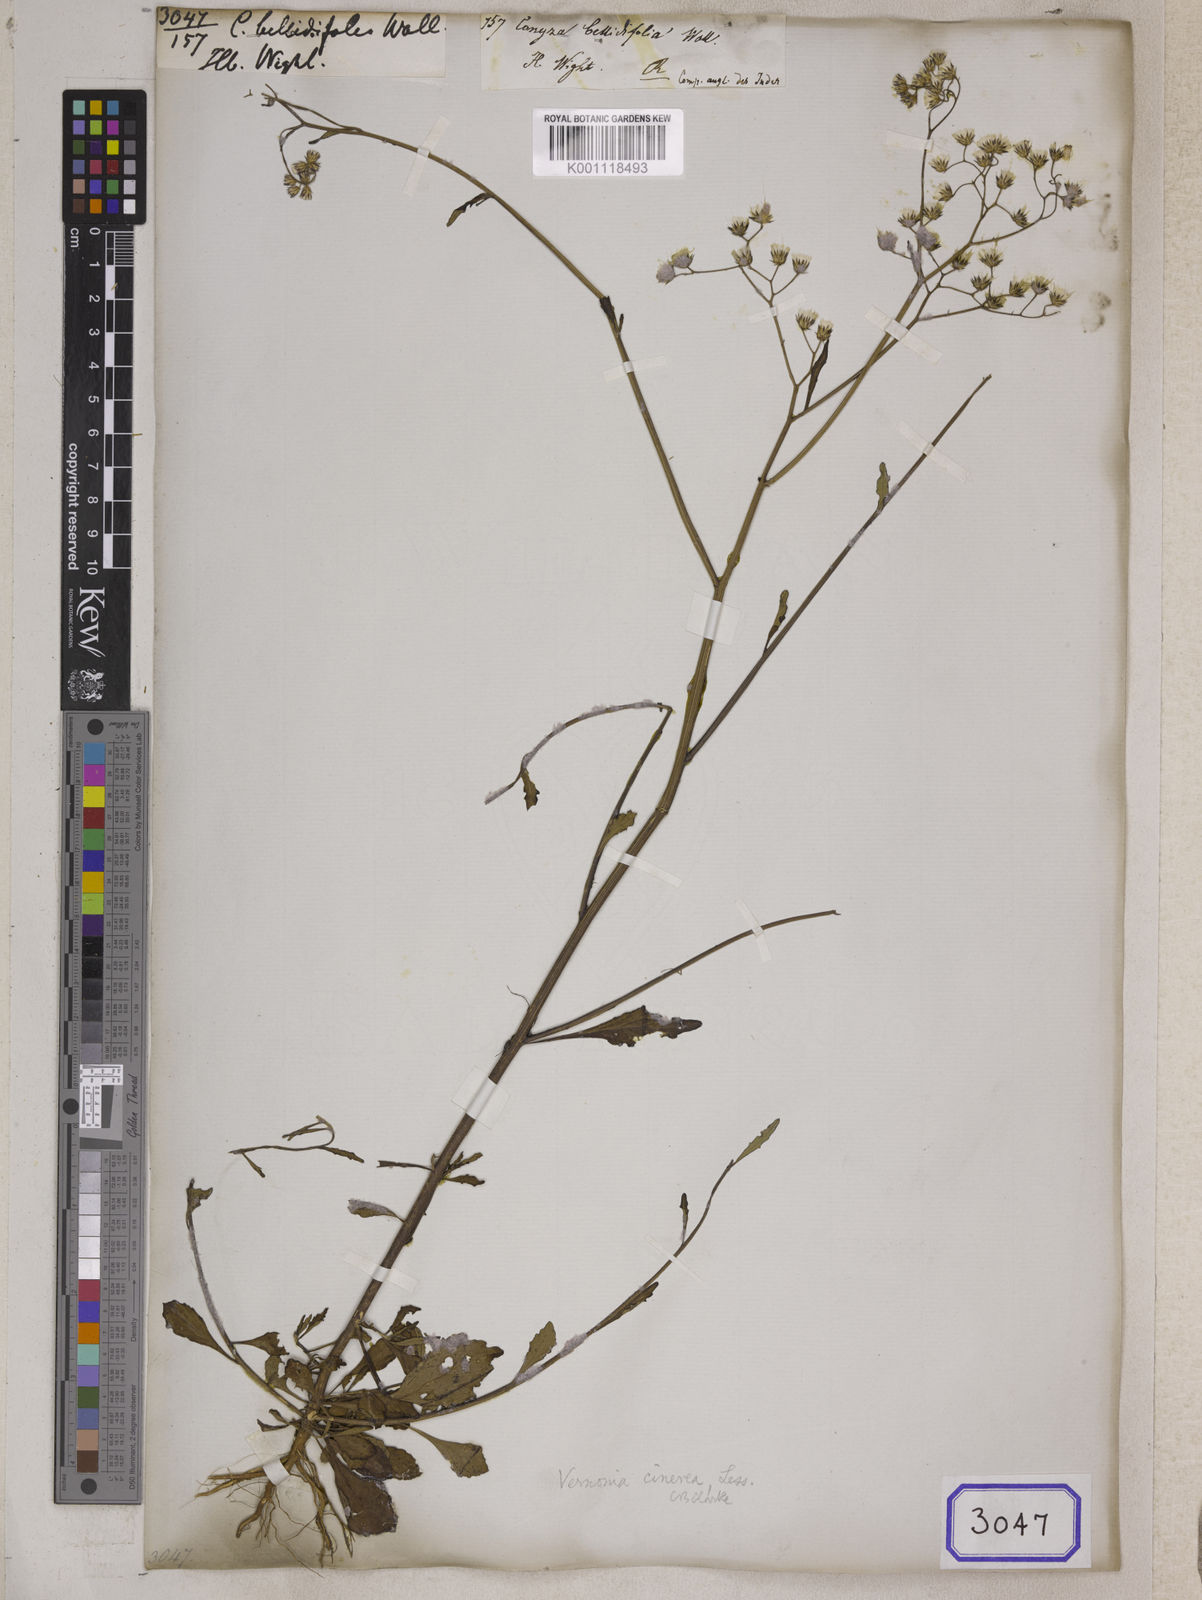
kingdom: Plantae
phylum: Tracheophyta
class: Magnoliopsida
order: Asterales
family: Asteraceae
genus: Cyanthillium
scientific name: Cyanthillium cinereum
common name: Little ironweed
